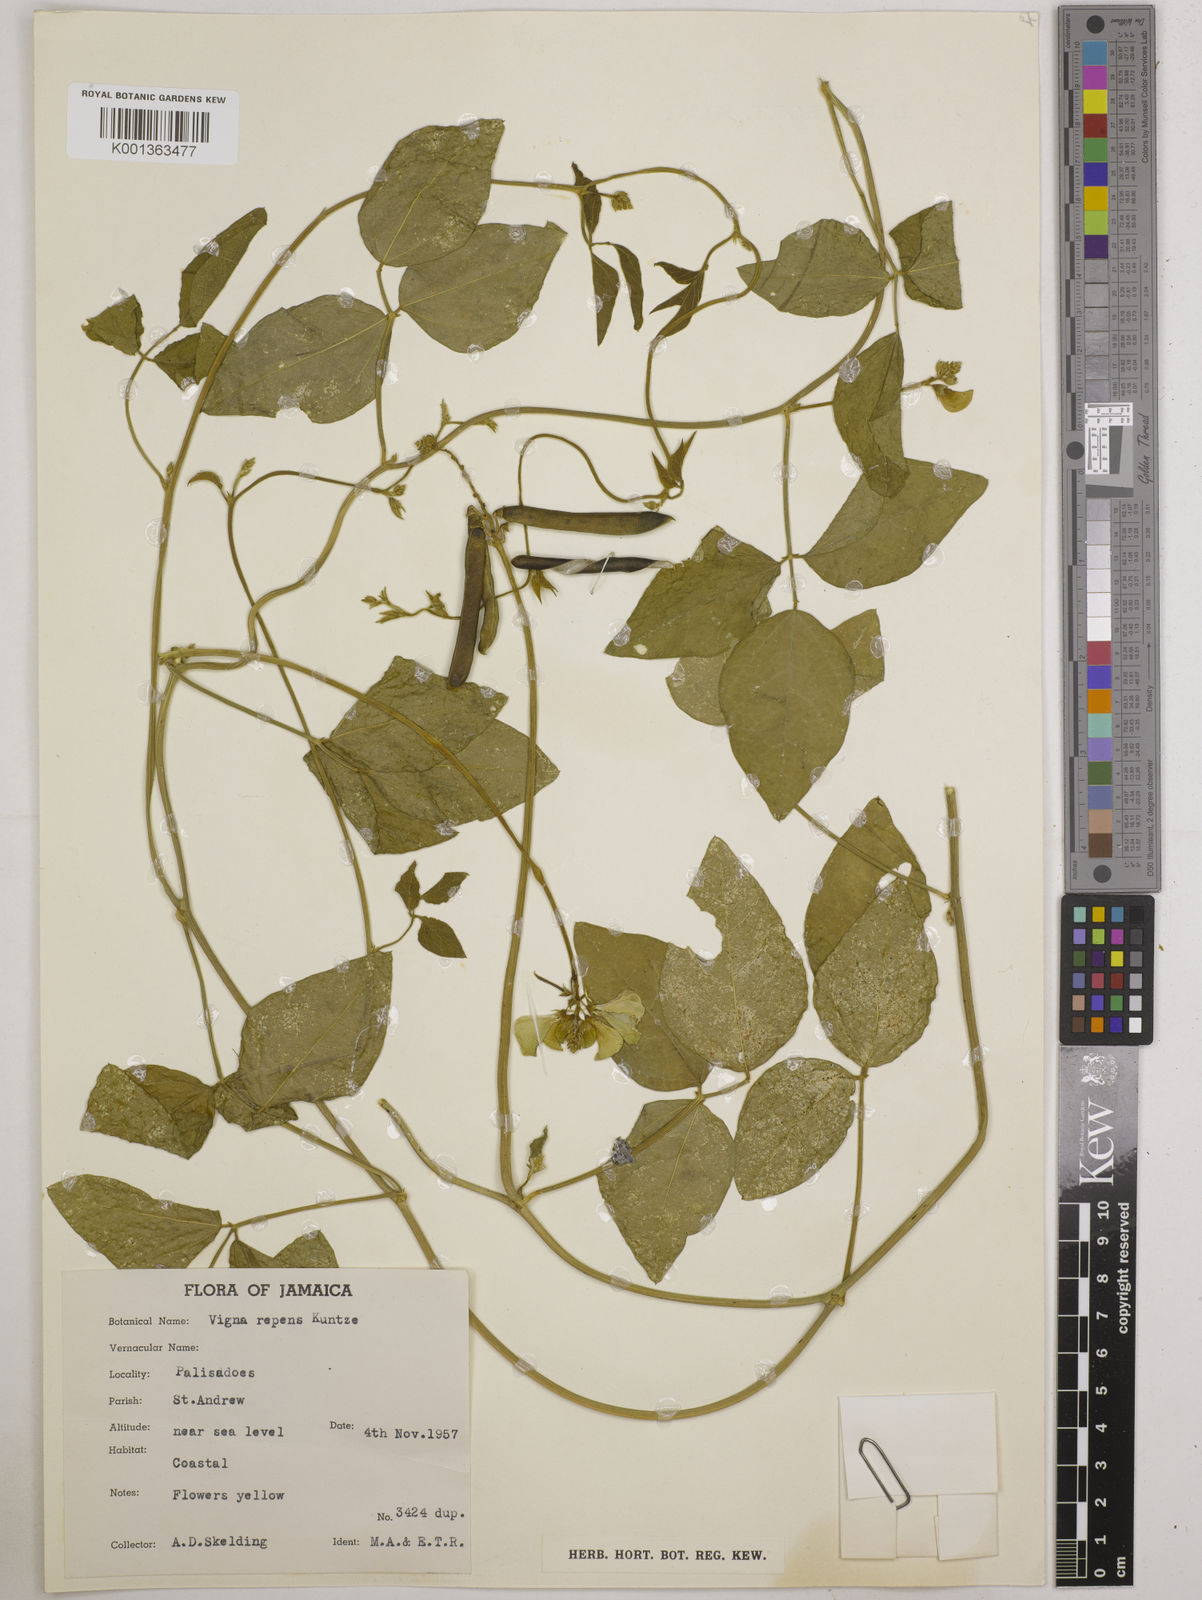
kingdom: Plantae
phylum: Tracheophyta
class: Magnoliopsida
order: Fabales
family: Fabaceae
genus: Vigna
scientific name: Vigna luteola
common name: Hairypod cowpea
